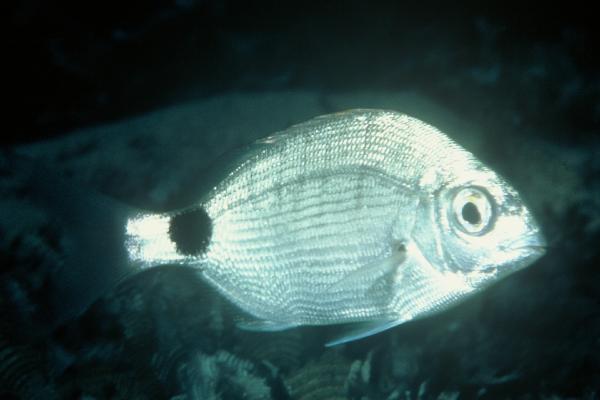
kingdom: Animalia
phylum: Chordata
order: Perciformes
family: Sparidae
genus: Diplodus
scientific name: Diplodus capensis
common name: Blacktail
